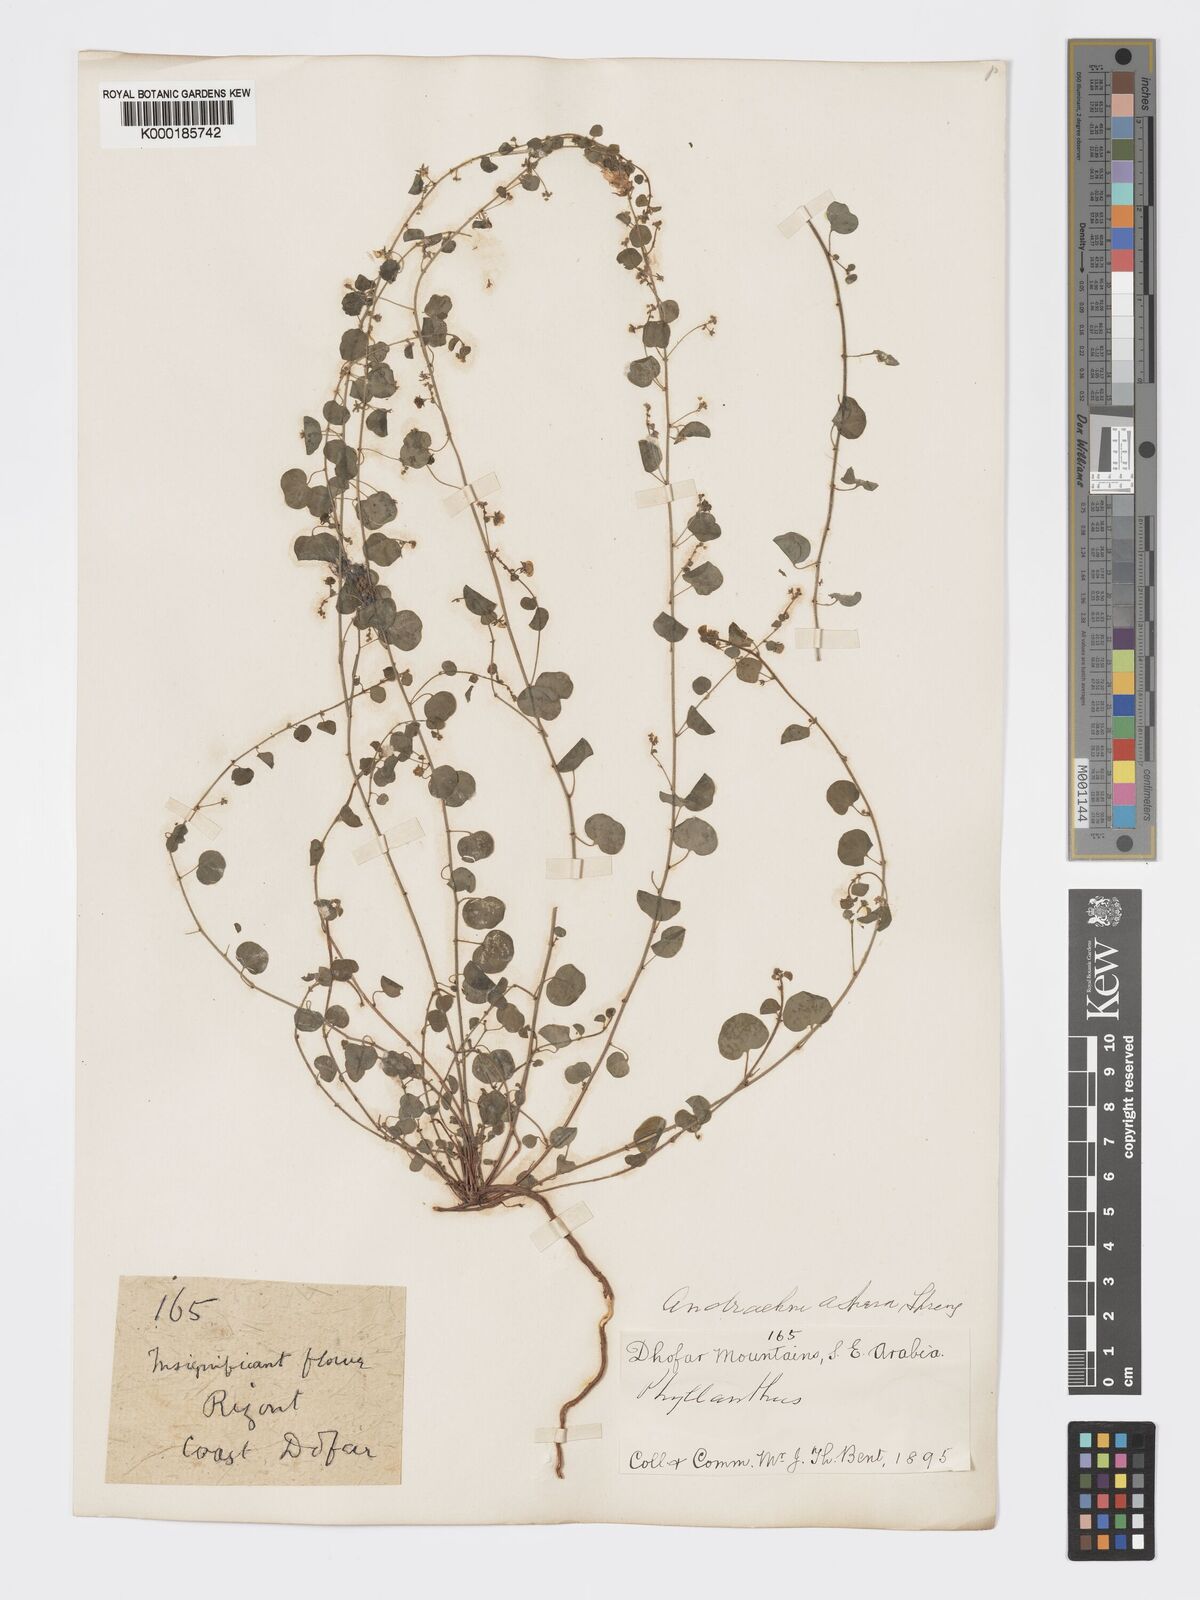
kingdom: Plantae
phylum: Tracheophyta
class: Magnoliopsida
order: Malpighiales
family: Phyllanthaceae
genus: Andrachne
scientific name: Andrachne aspera
